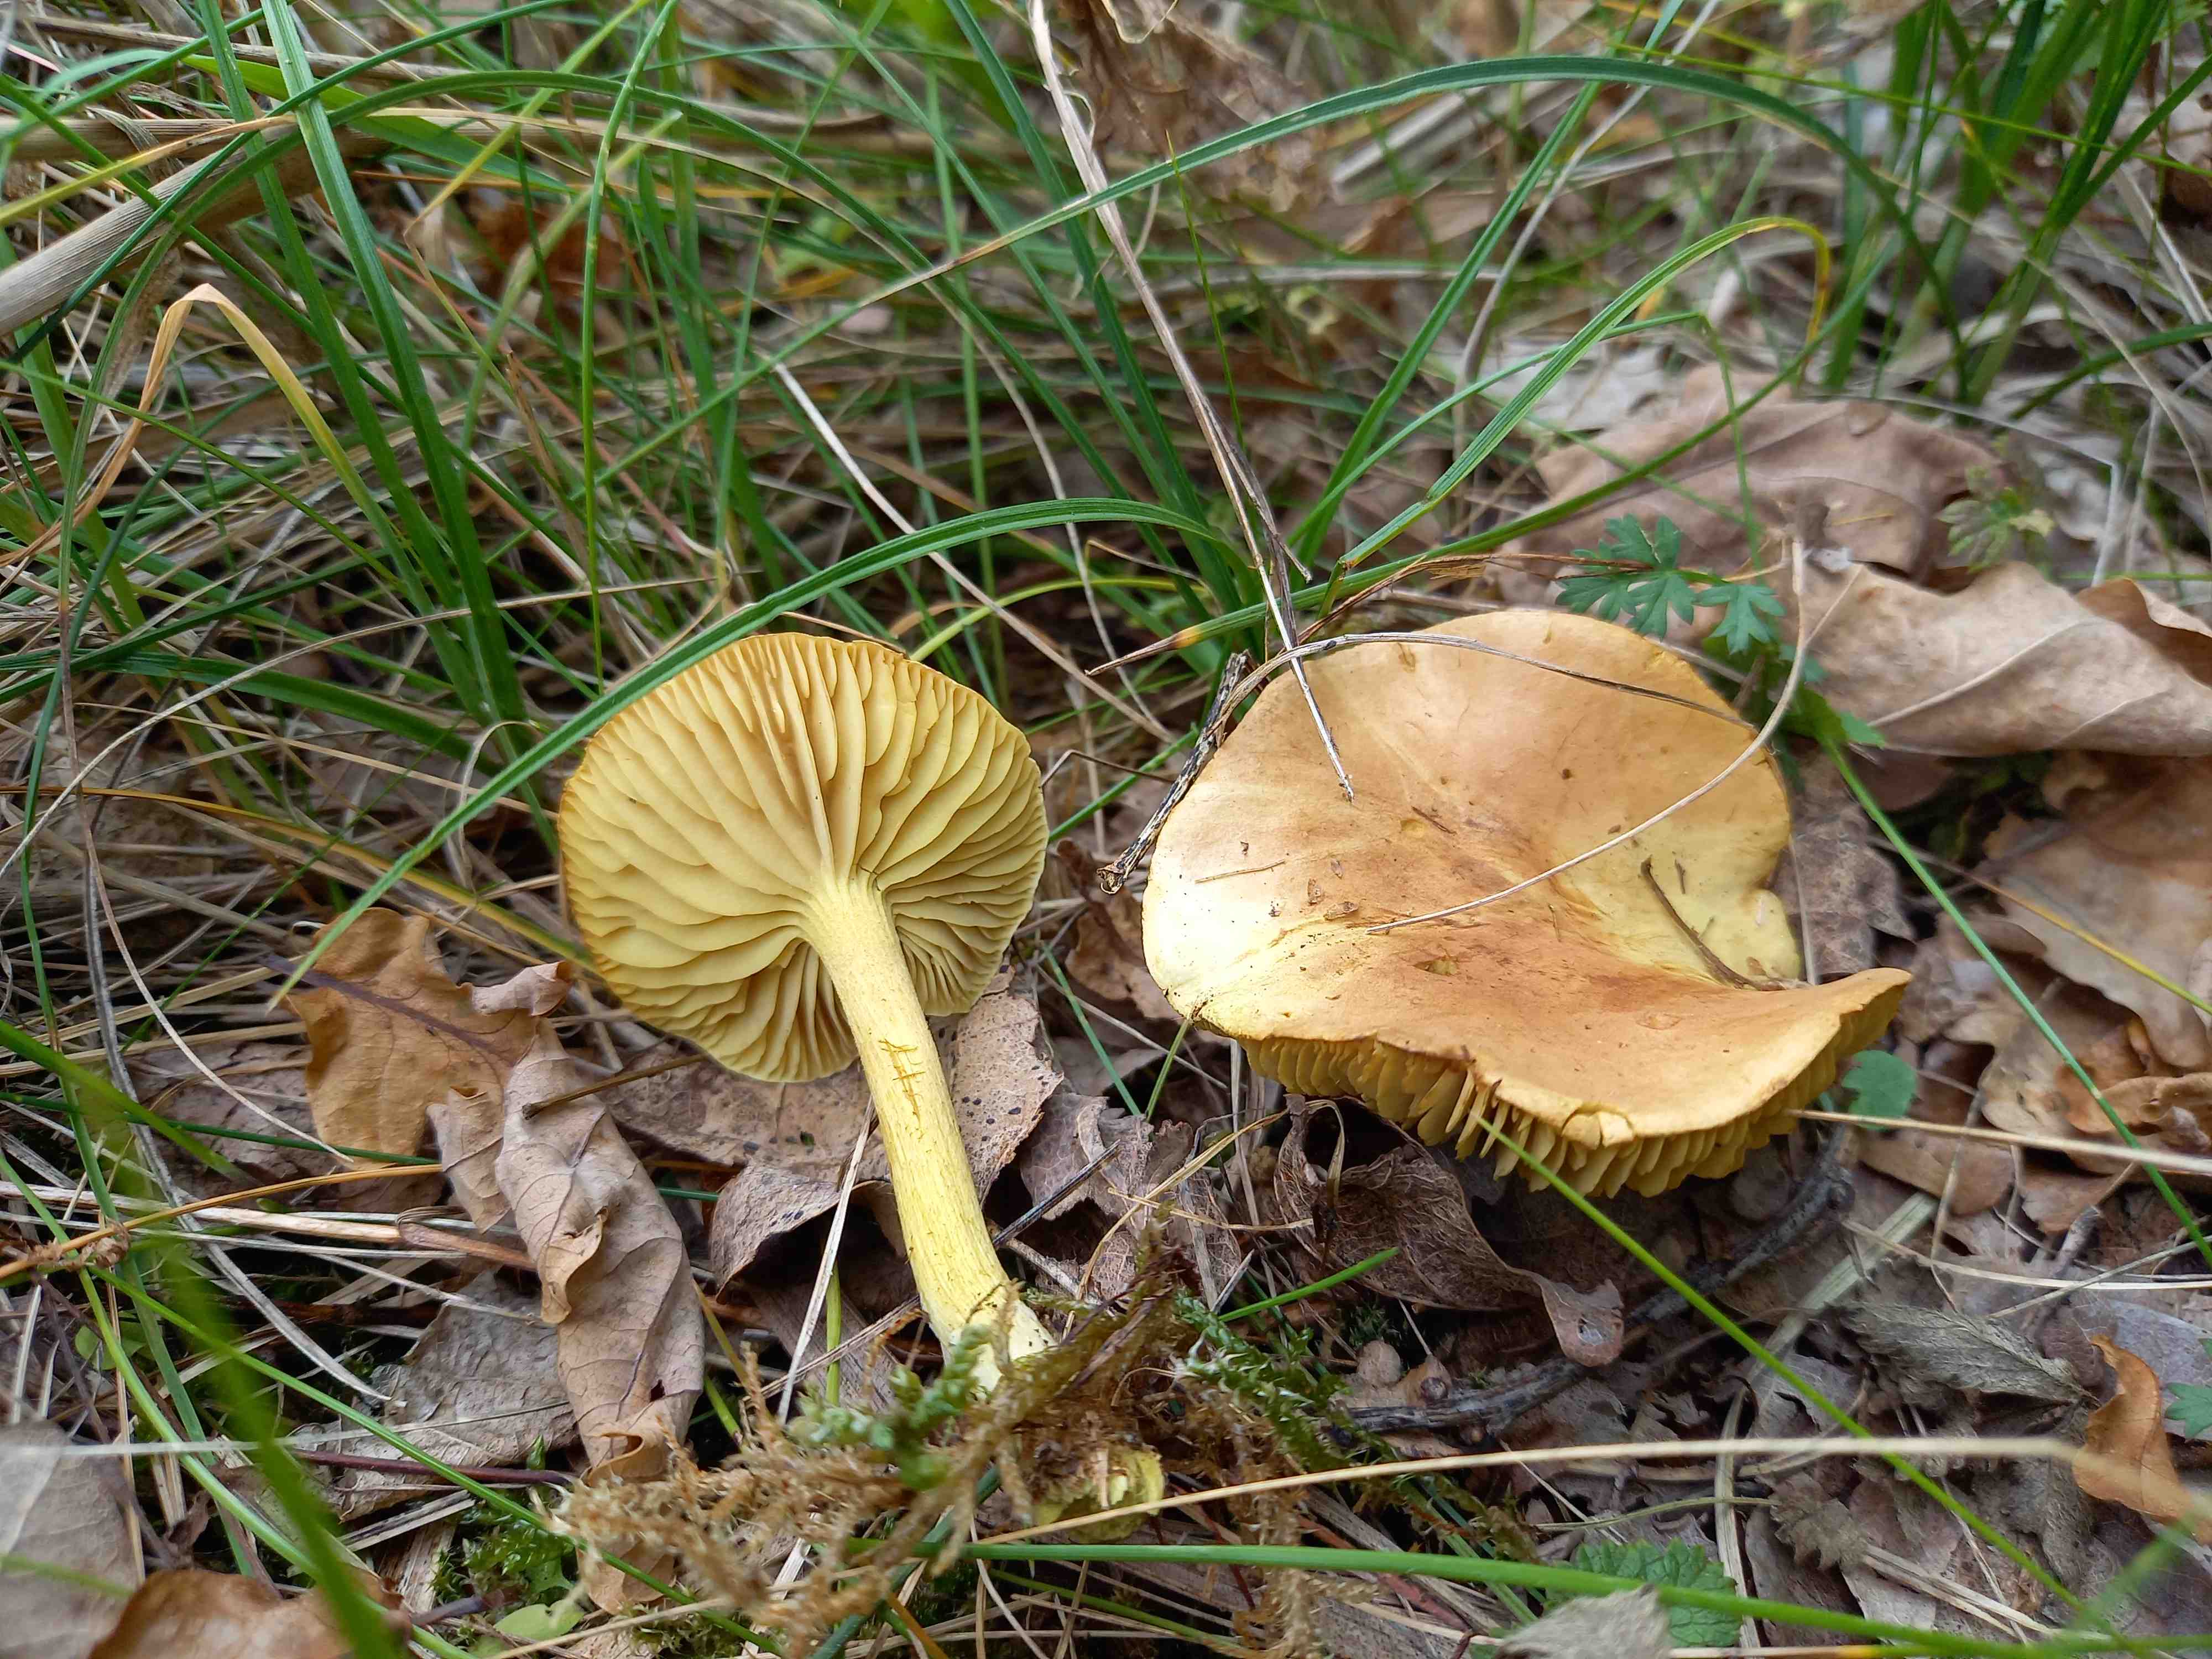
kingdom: Fungi
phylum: Basidiomycota
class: Agaricomycetes
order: Agaricales
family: Tricholomataceae
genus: Tricholoma
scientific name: Tricholoma sulphureum
